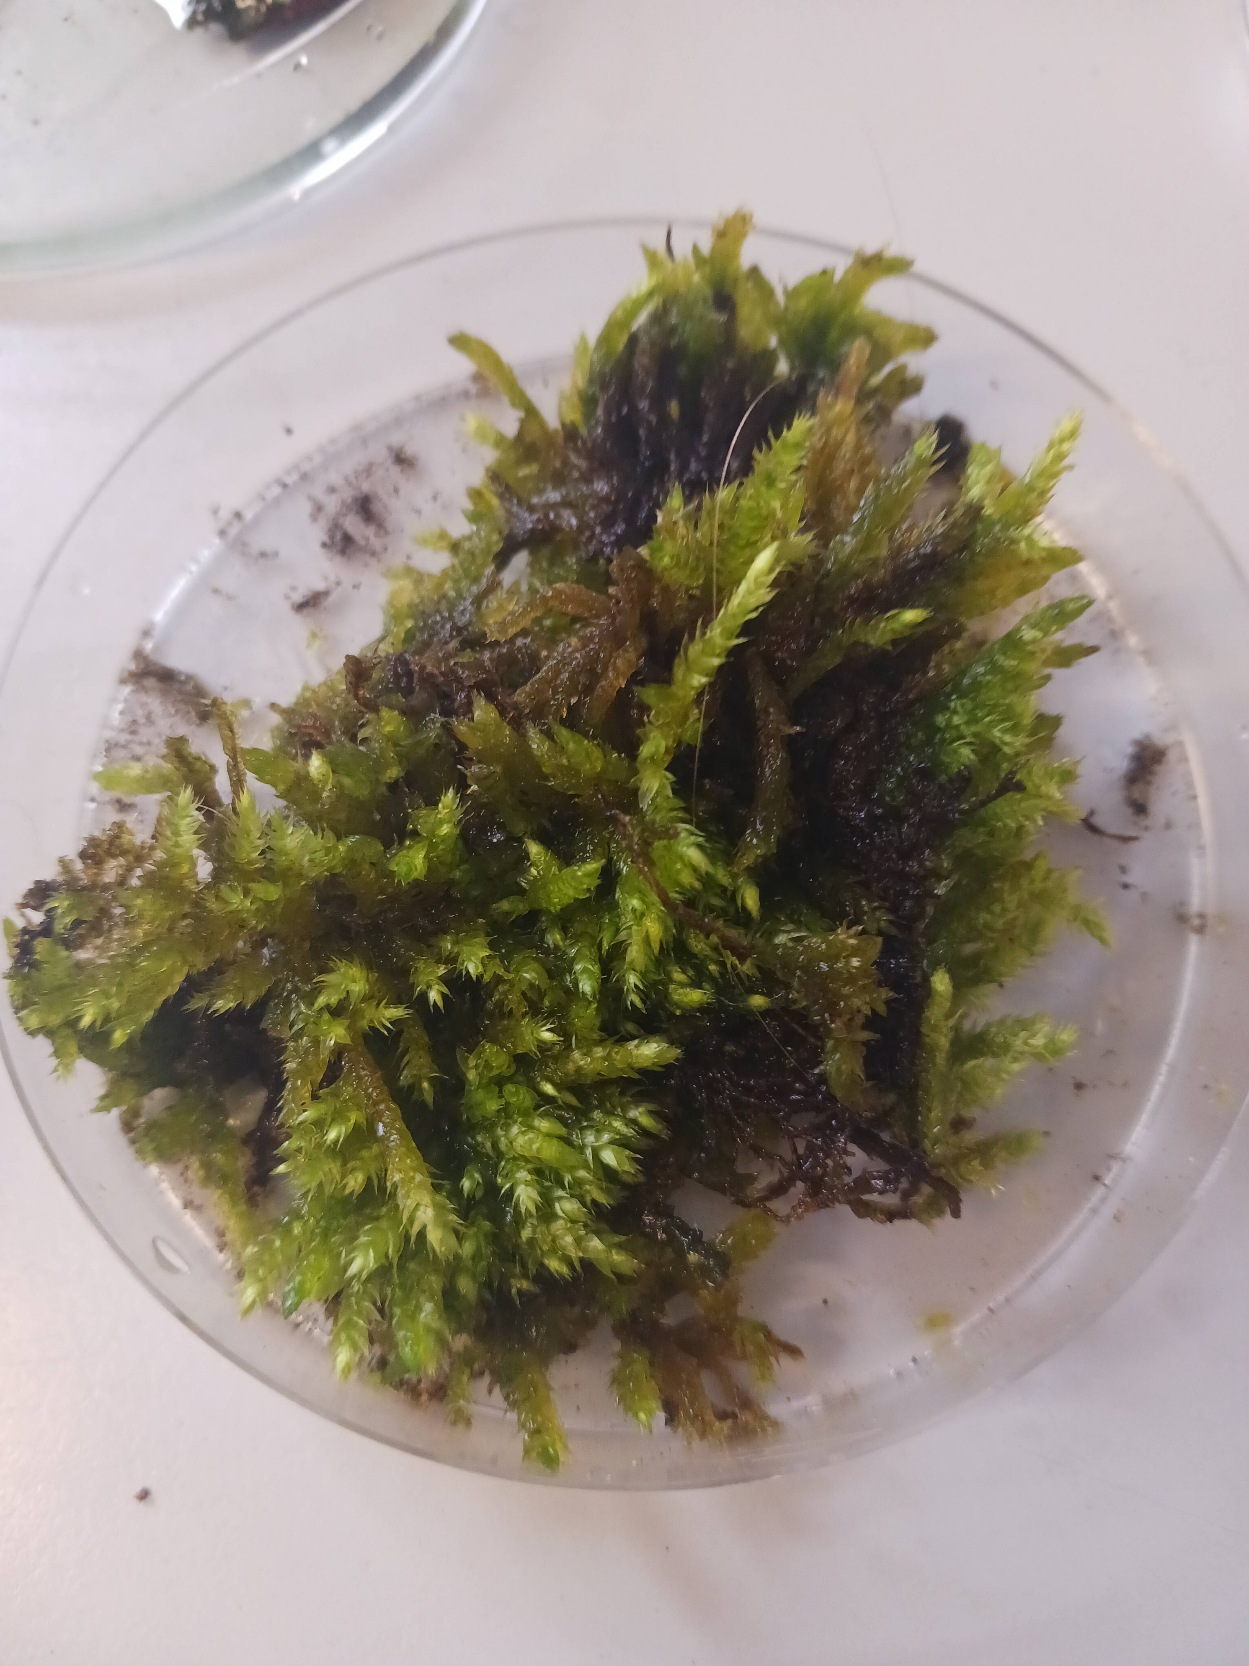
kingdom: Plantae
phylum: Bryophyta
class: Bryopsida
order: Hypnales
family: Brachytheciaceae
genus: Brachythecium
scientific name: Brachythecium rutabulum
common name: Almindelig kortkapsel
